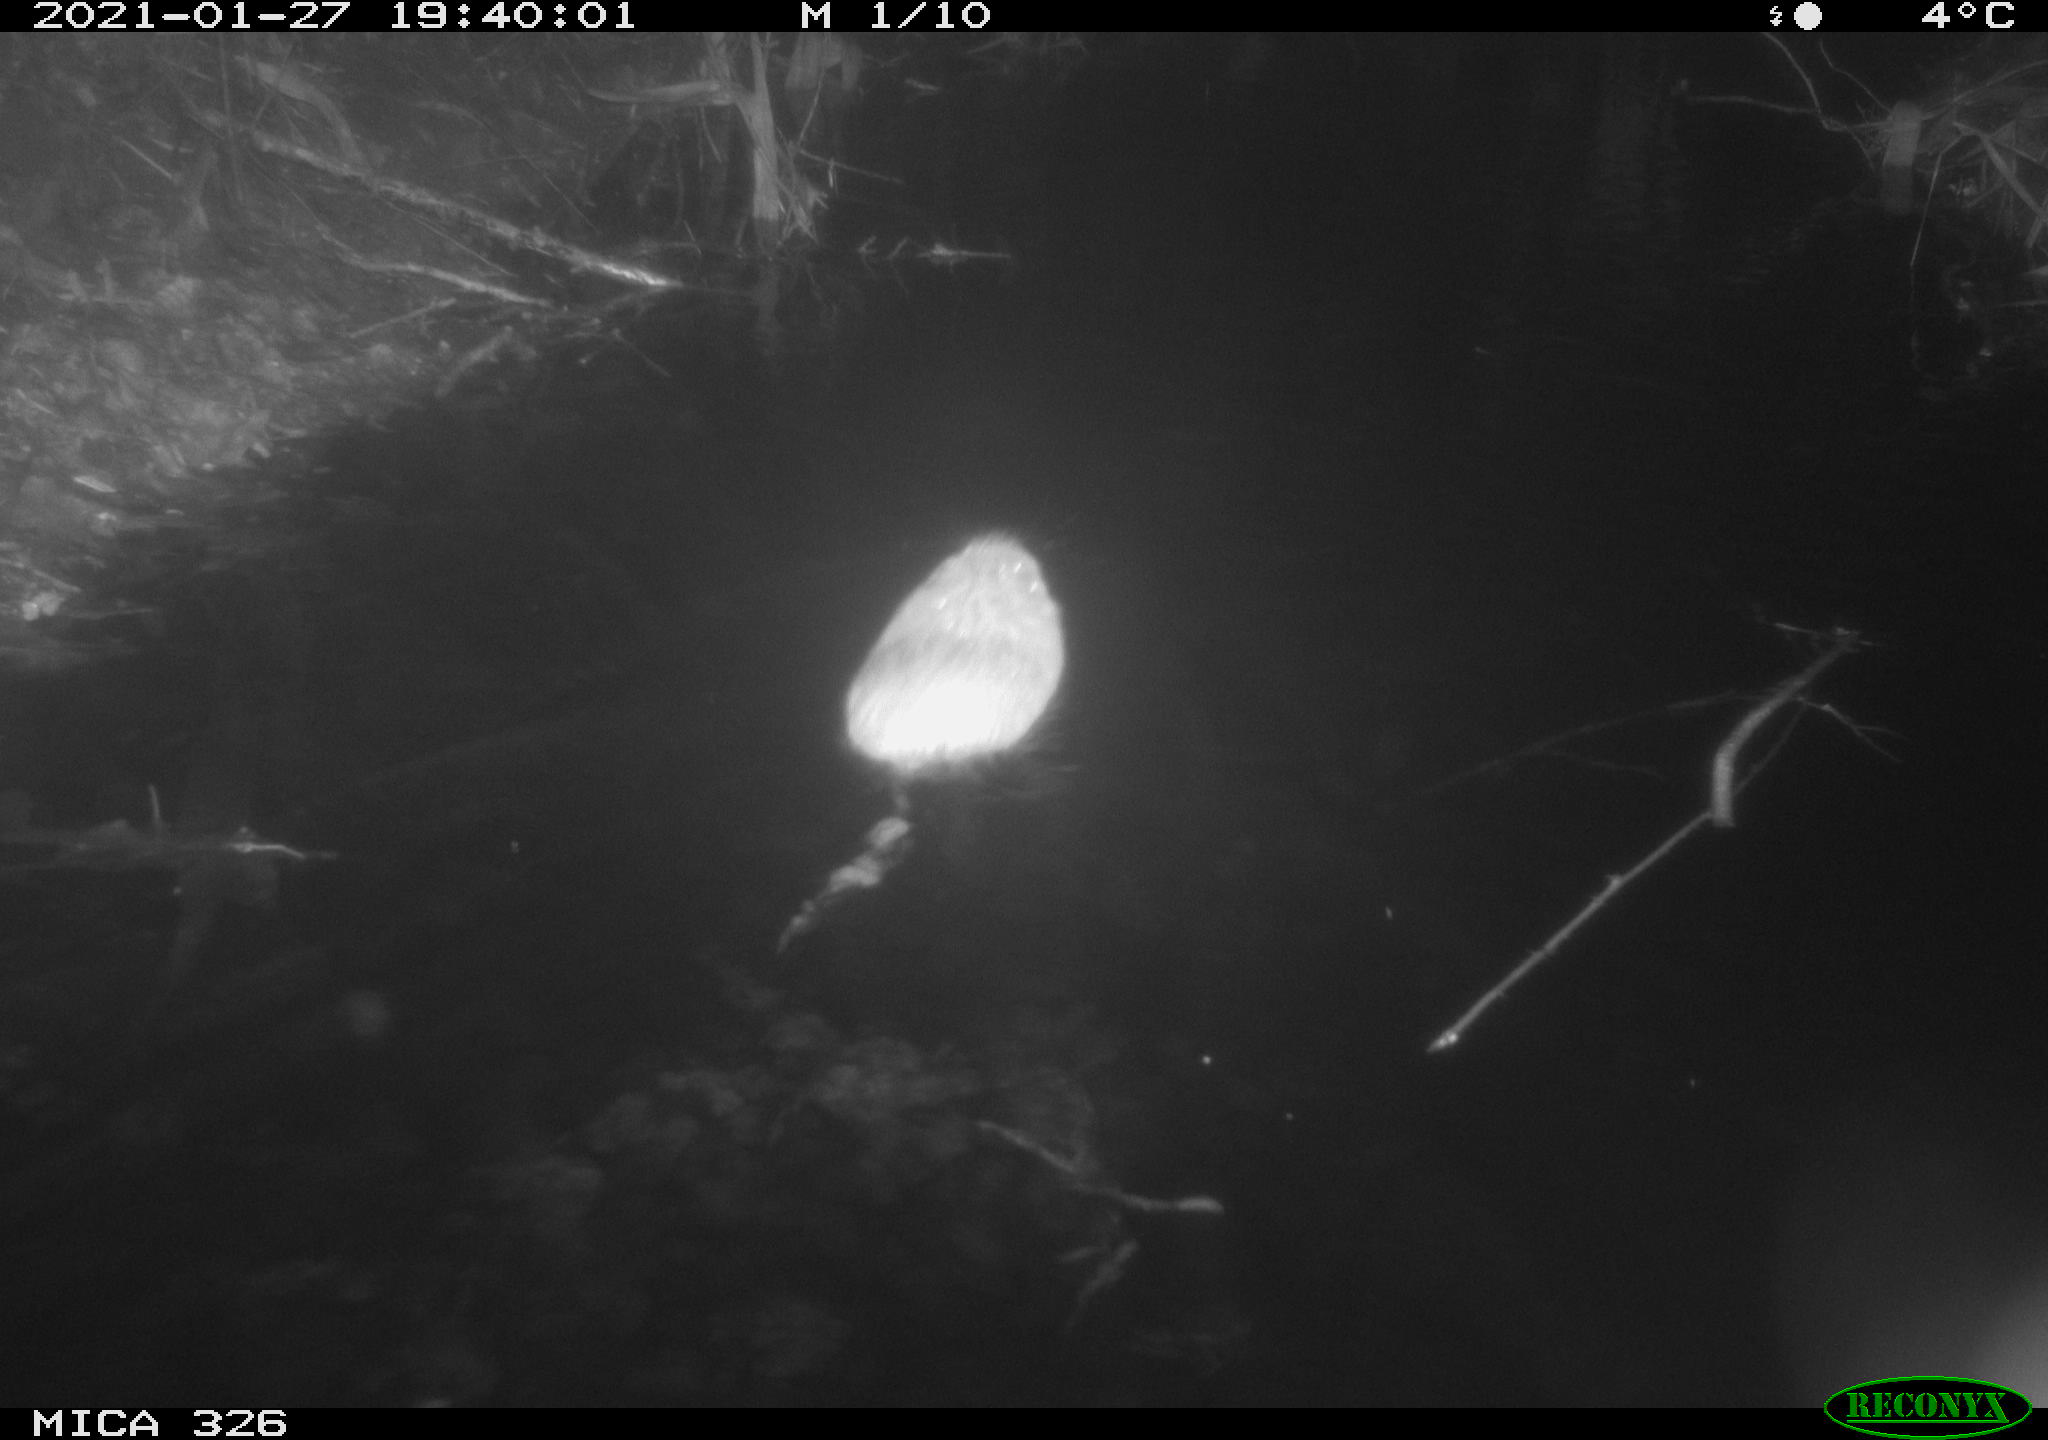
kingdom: Animalia
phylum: Chordata
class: Mammalia
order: Rodentia
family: Cricetidae
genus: Ondatra
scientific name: Ondatra zibethicus
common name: Muskrat
